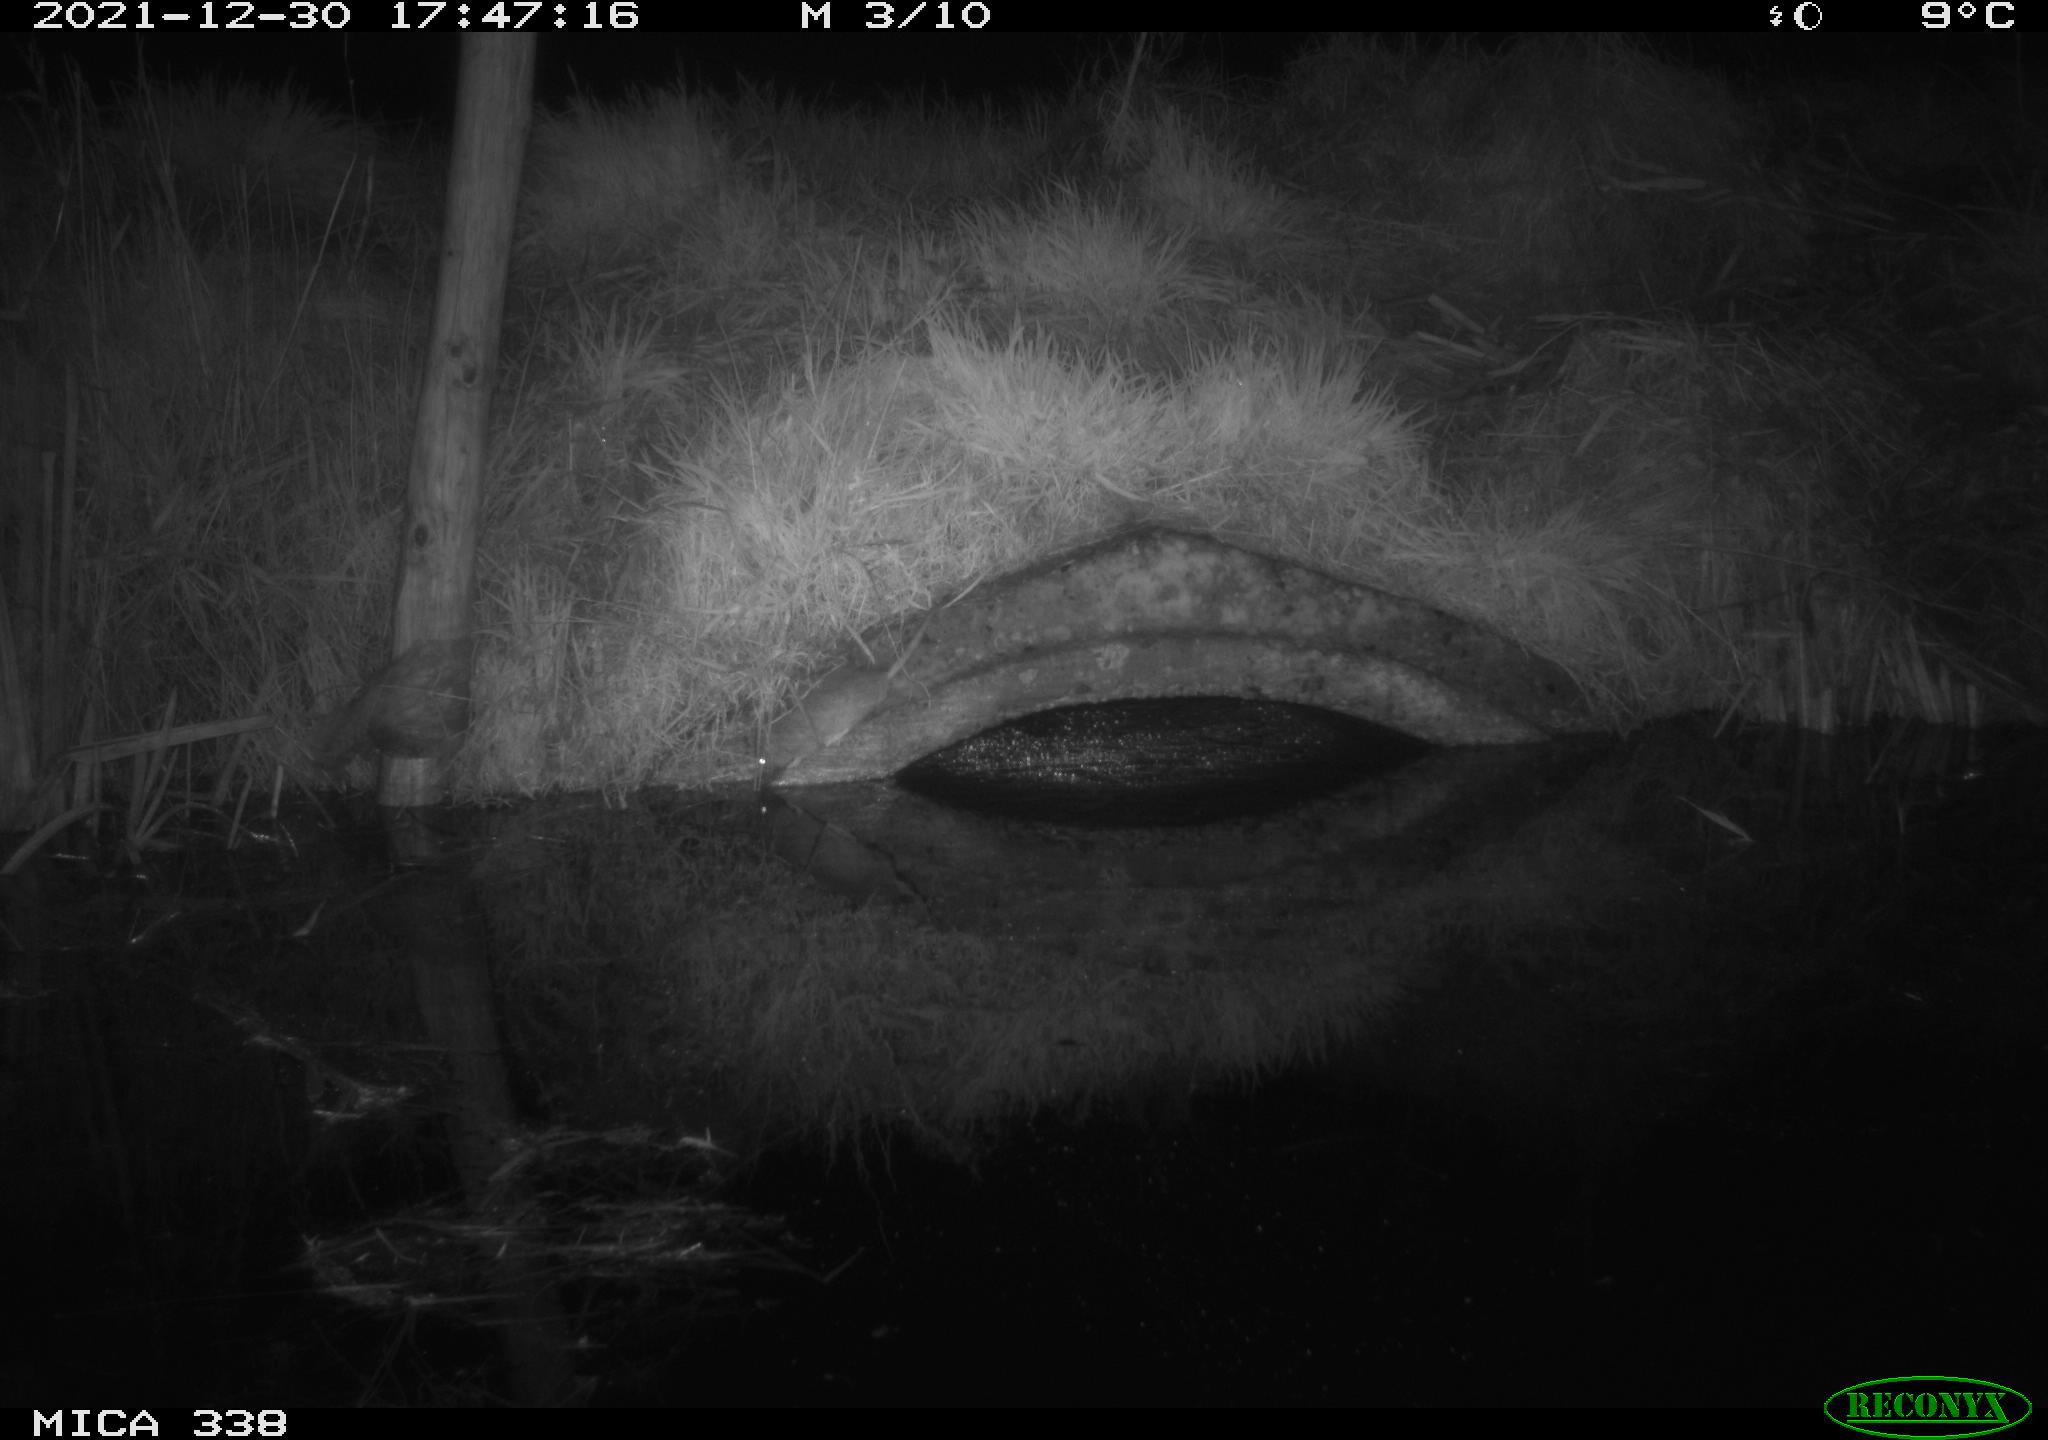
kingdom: Animalia
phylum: Chordata
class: Mammalia
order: Rodentia
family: Muridae
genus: Rattus
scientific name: Rattus norvegicus
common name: Brown rat
